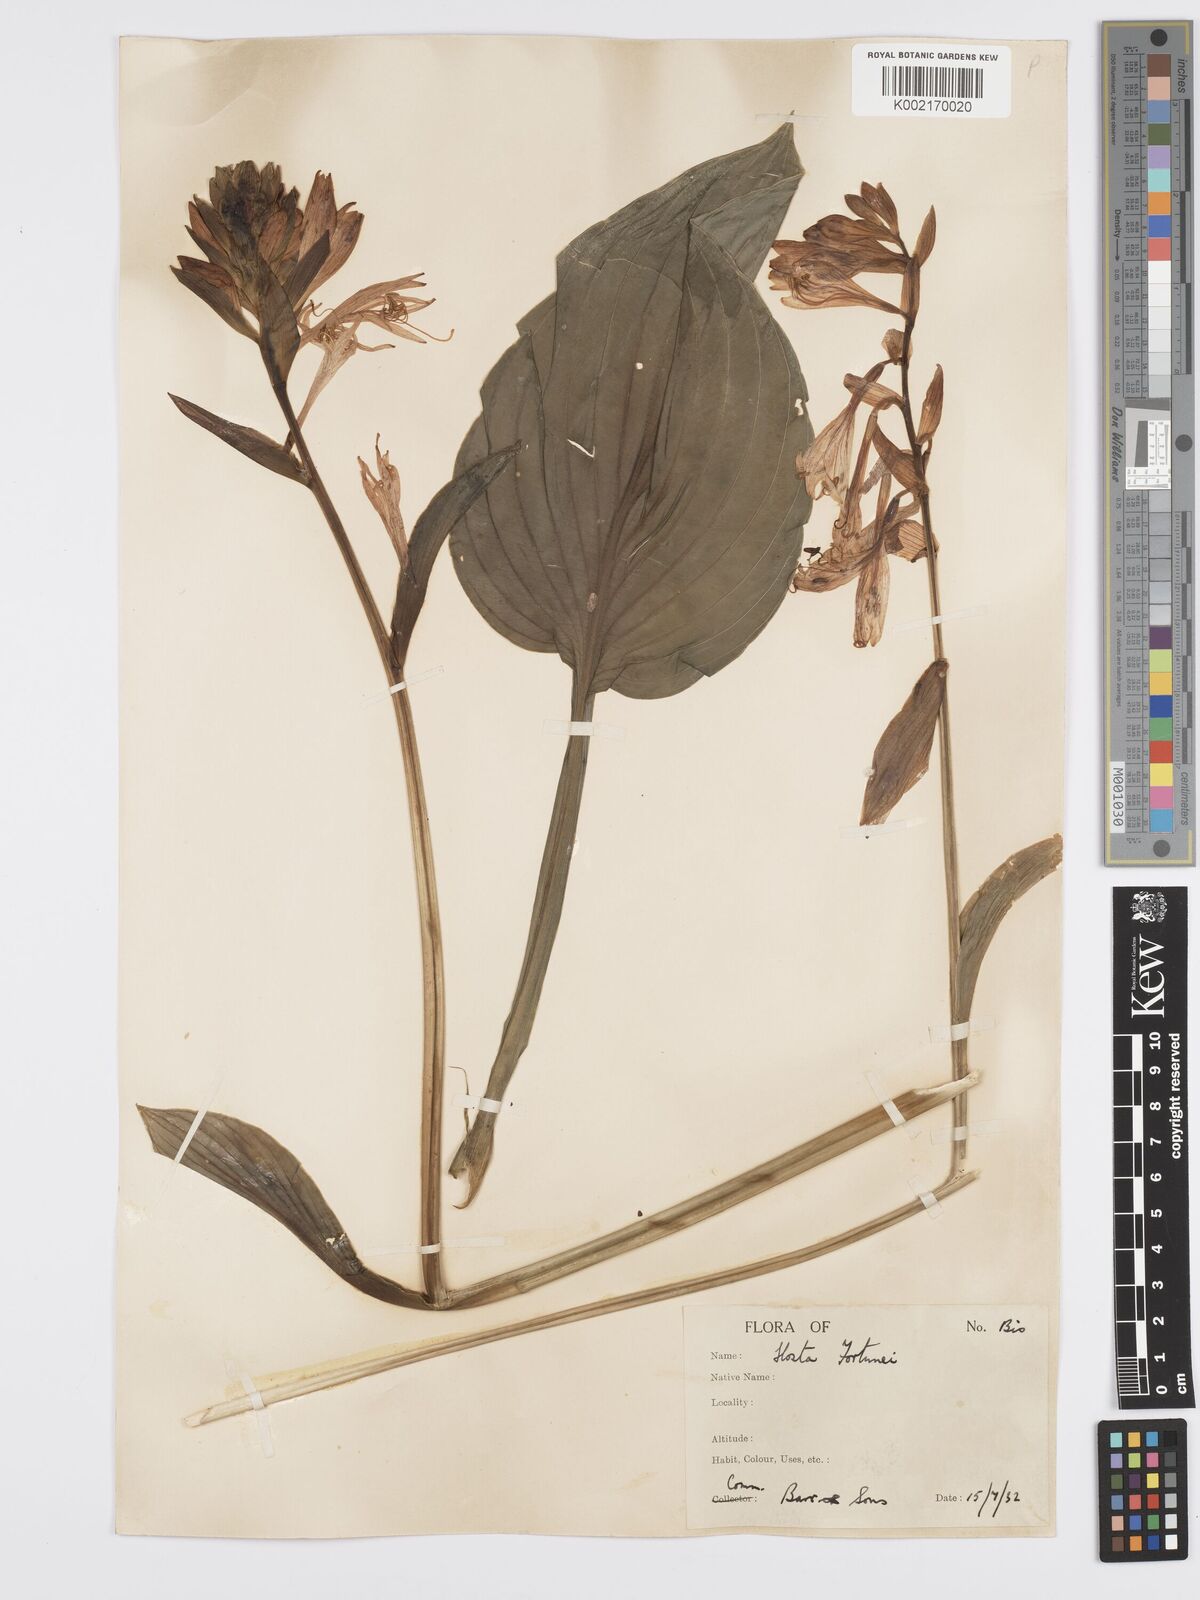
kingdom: Plantae
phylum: Tracheophyta
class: Liliopsida
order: Asparagales
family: Asparagaceae
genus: Hosta
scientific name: Hosta sieboldiana
